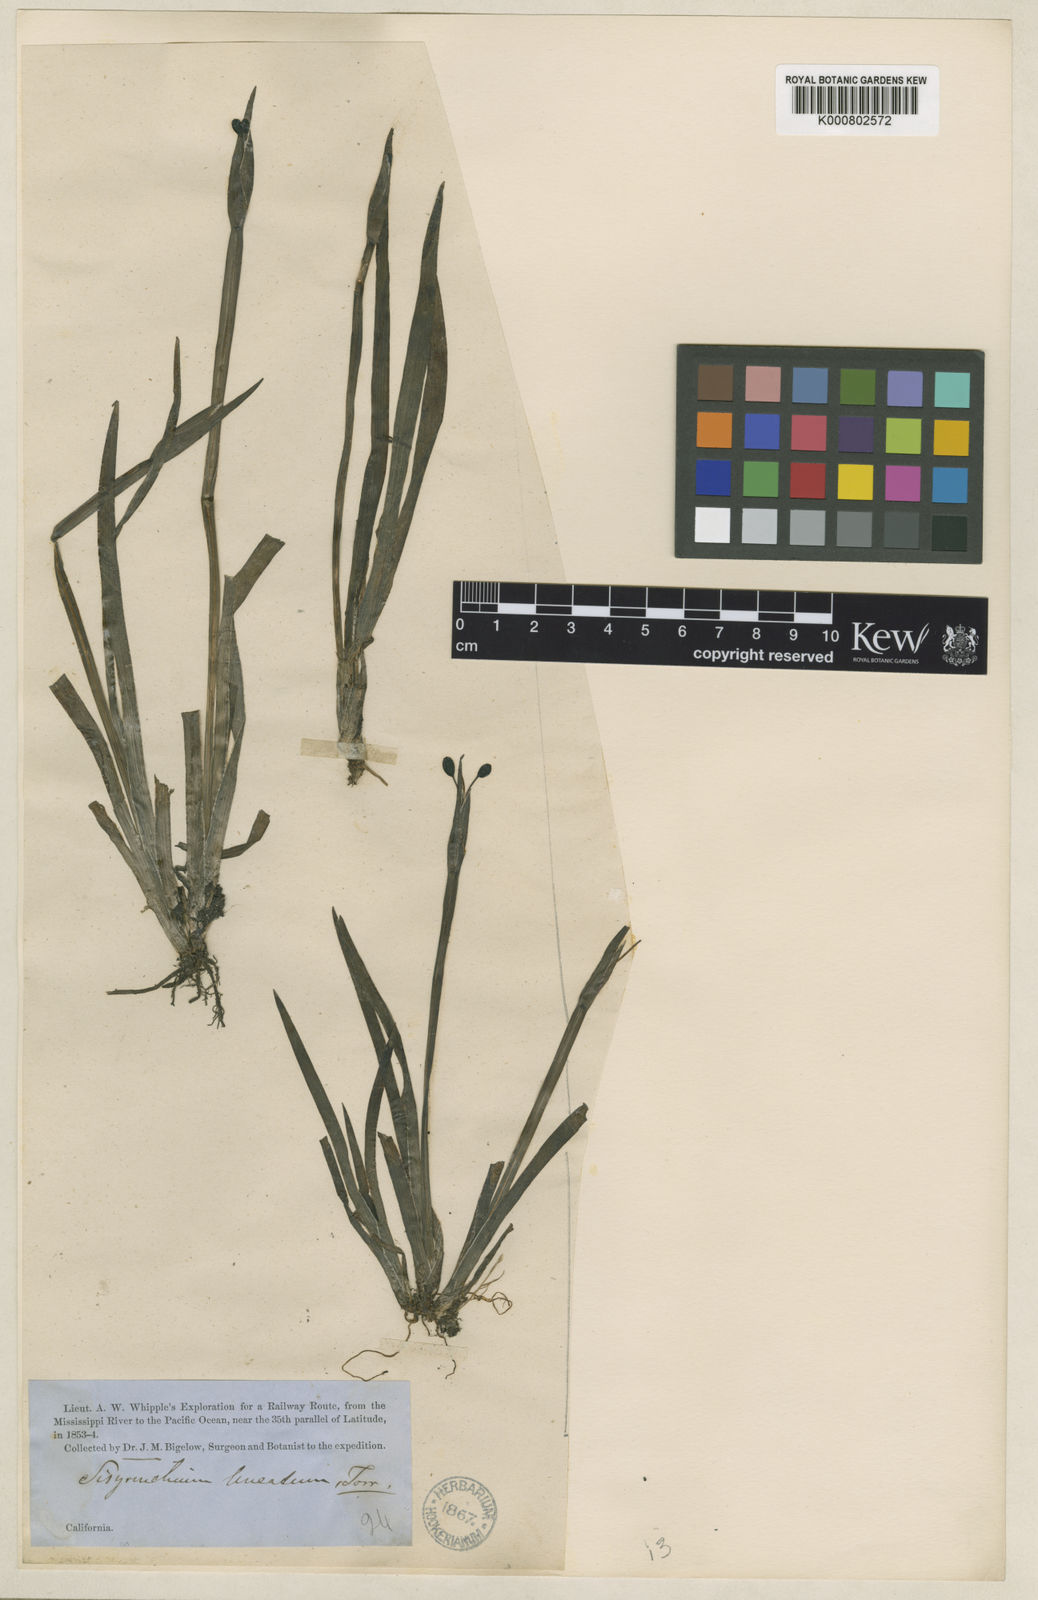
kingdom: Plantae
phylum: Tracheophyta
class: Liliopsida
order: Asparagales
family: Iridaceae
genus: Sisyrinchium
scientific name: Sisyrinchium californicum
